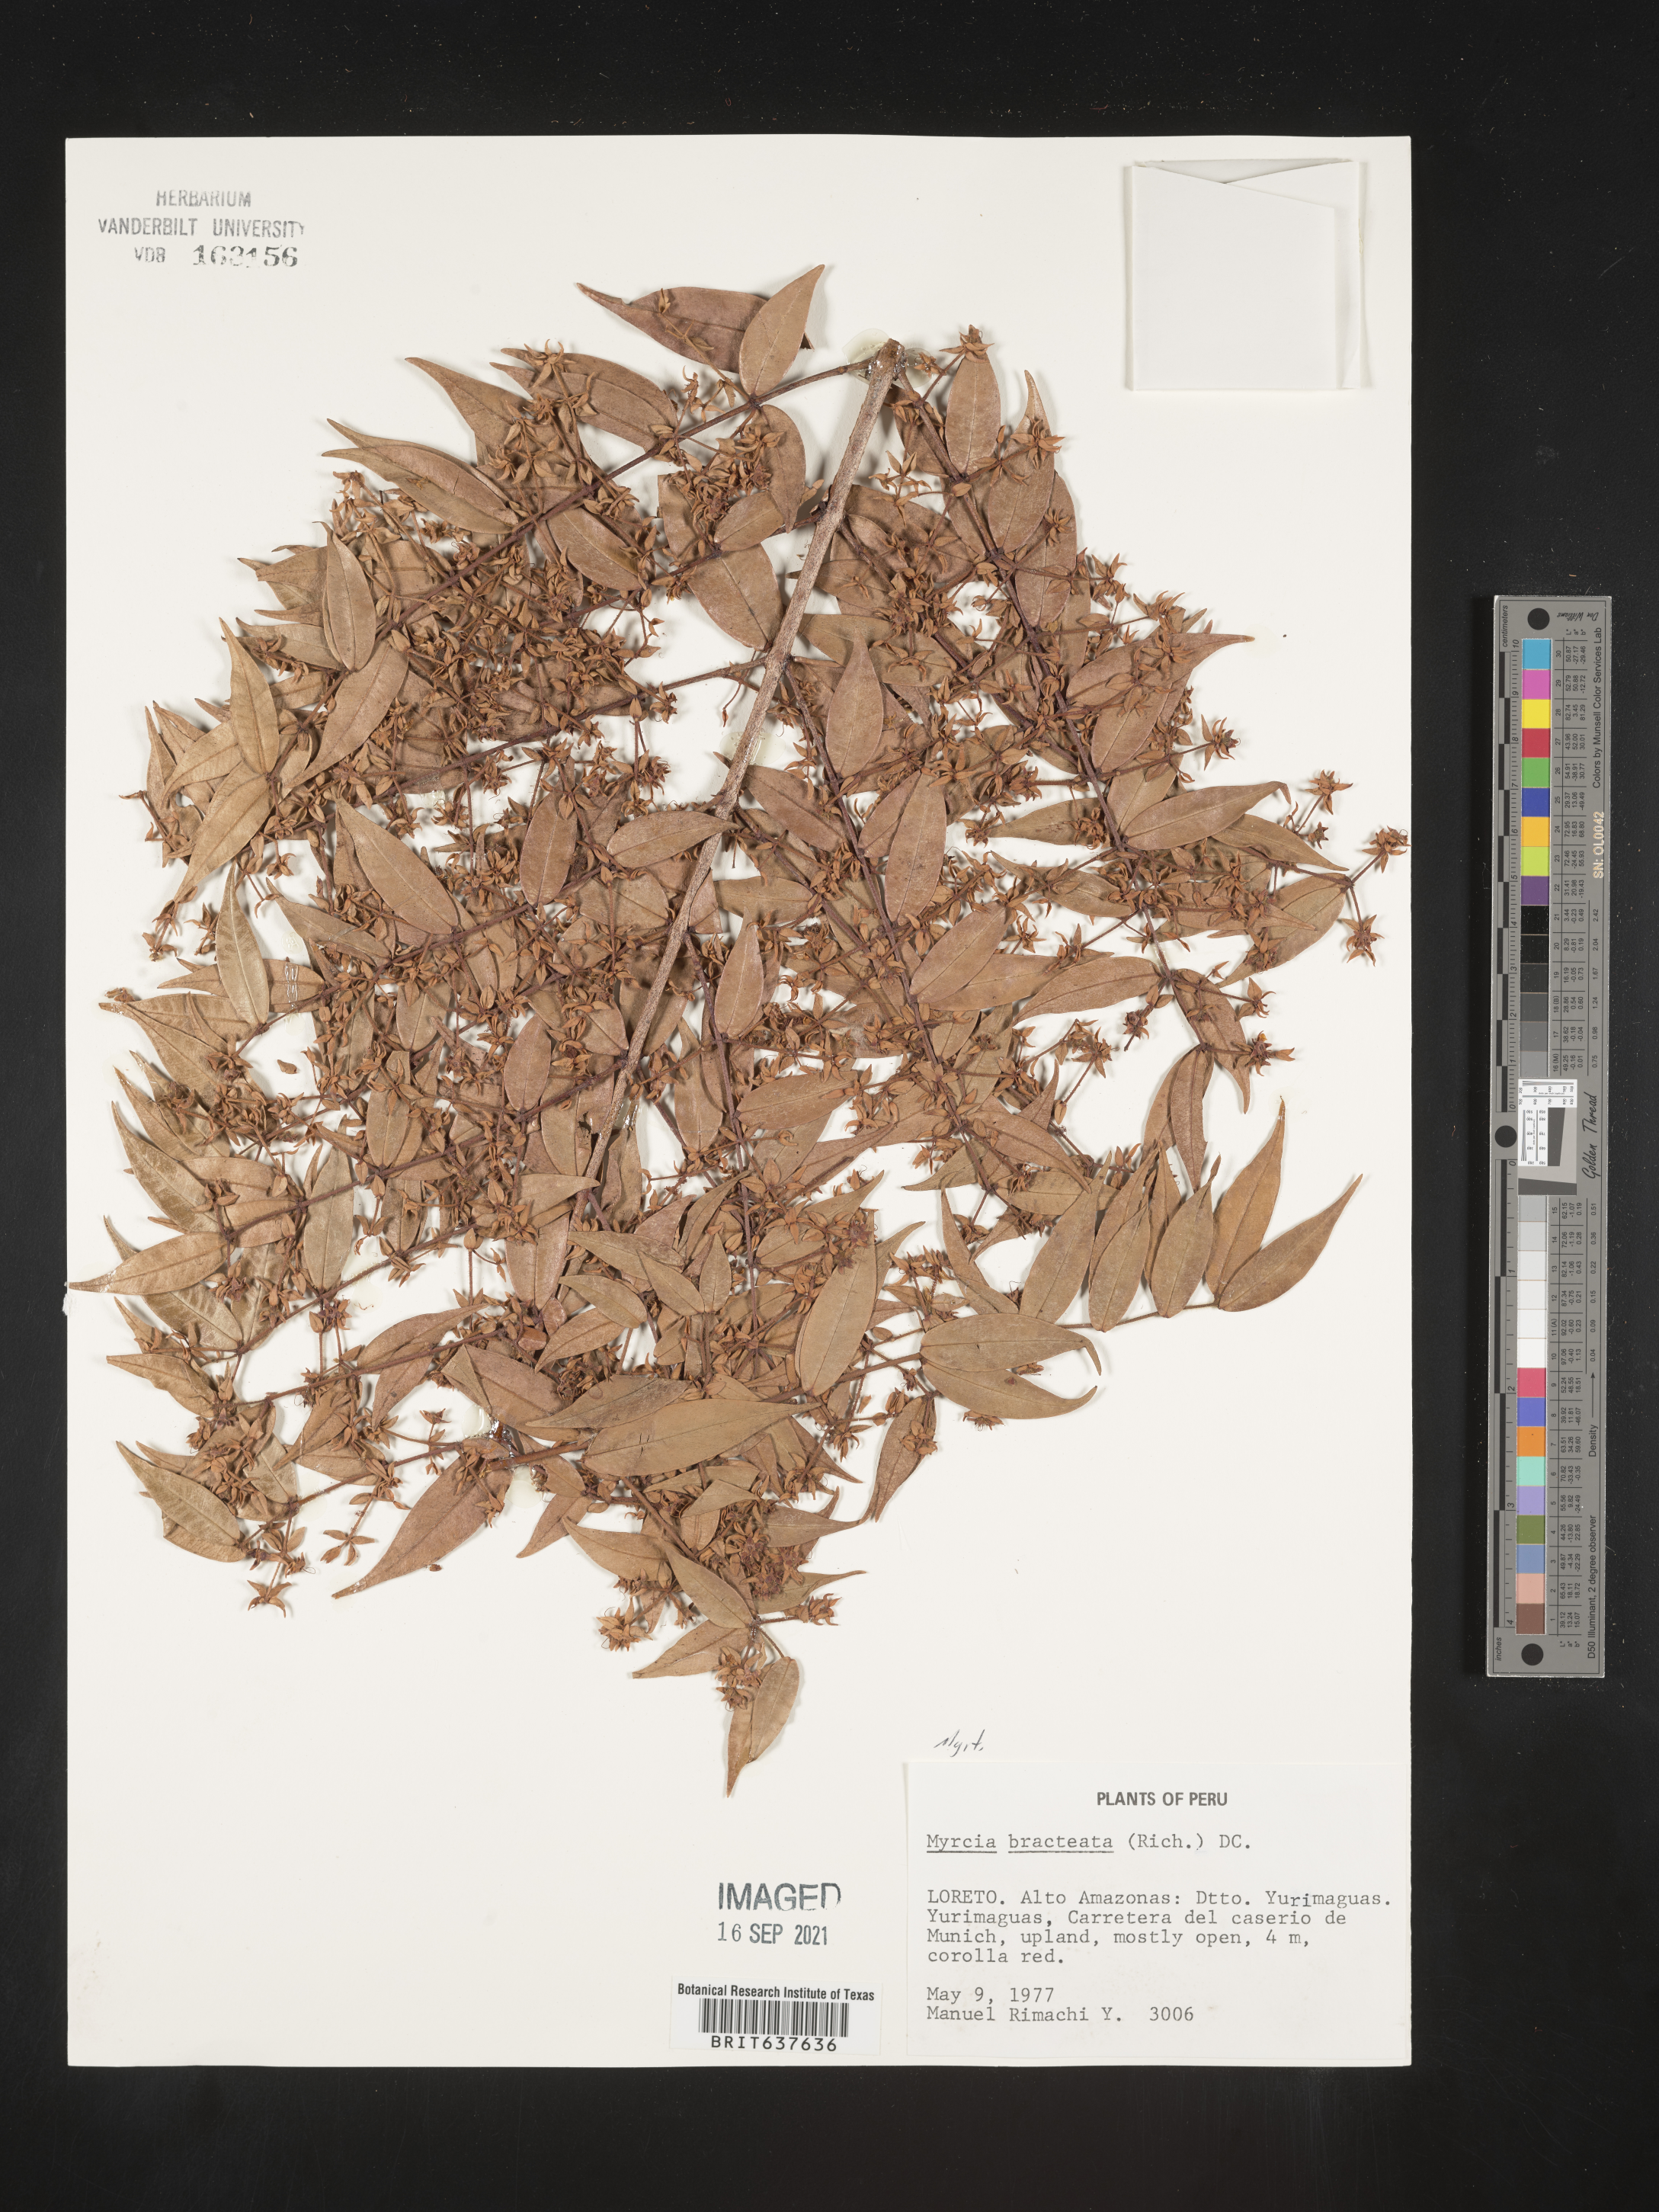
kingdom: Plantae
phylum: Tracheophyta
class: Magnoliopsida
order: Myrtales
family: Myrtaceae
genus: Myrcia
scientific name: Myrcia
